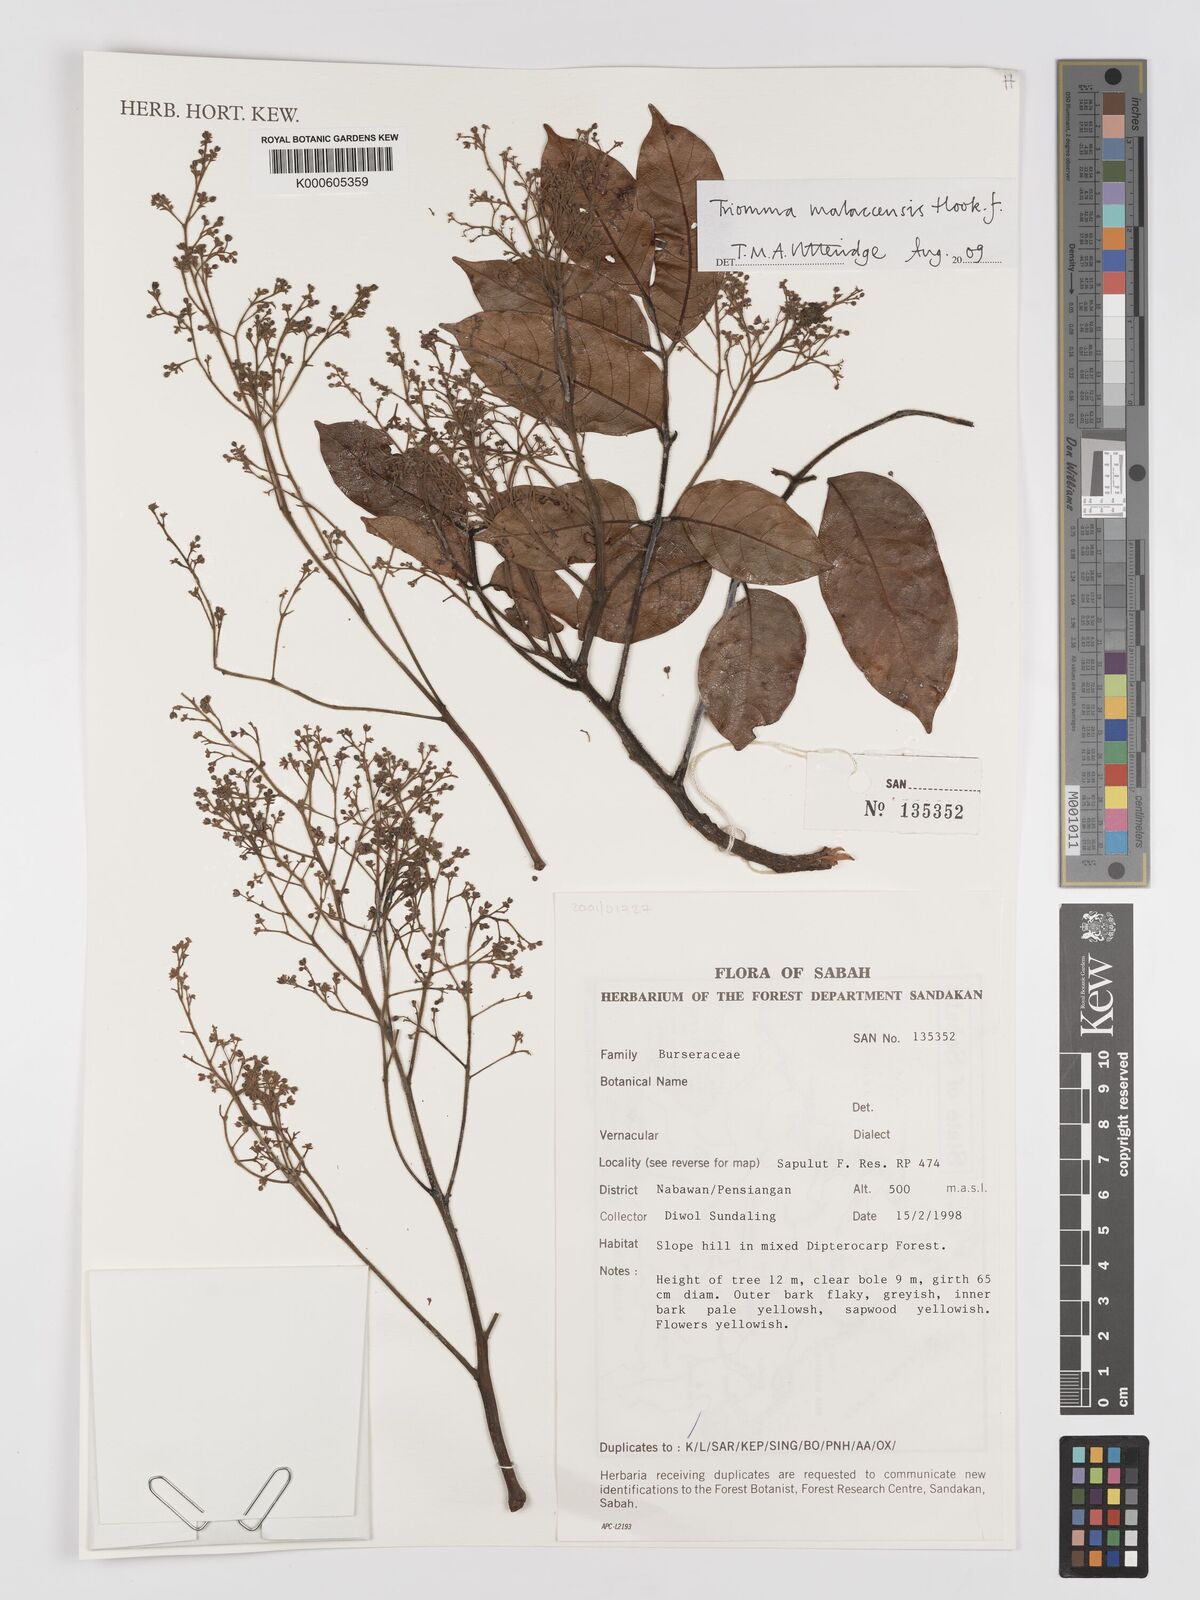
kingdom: Plantae
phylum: Tracheophyta
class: Magnoliopsida
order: Sapindales
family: Burseraceae
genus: Triomma
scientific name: Triomma malaccensis
